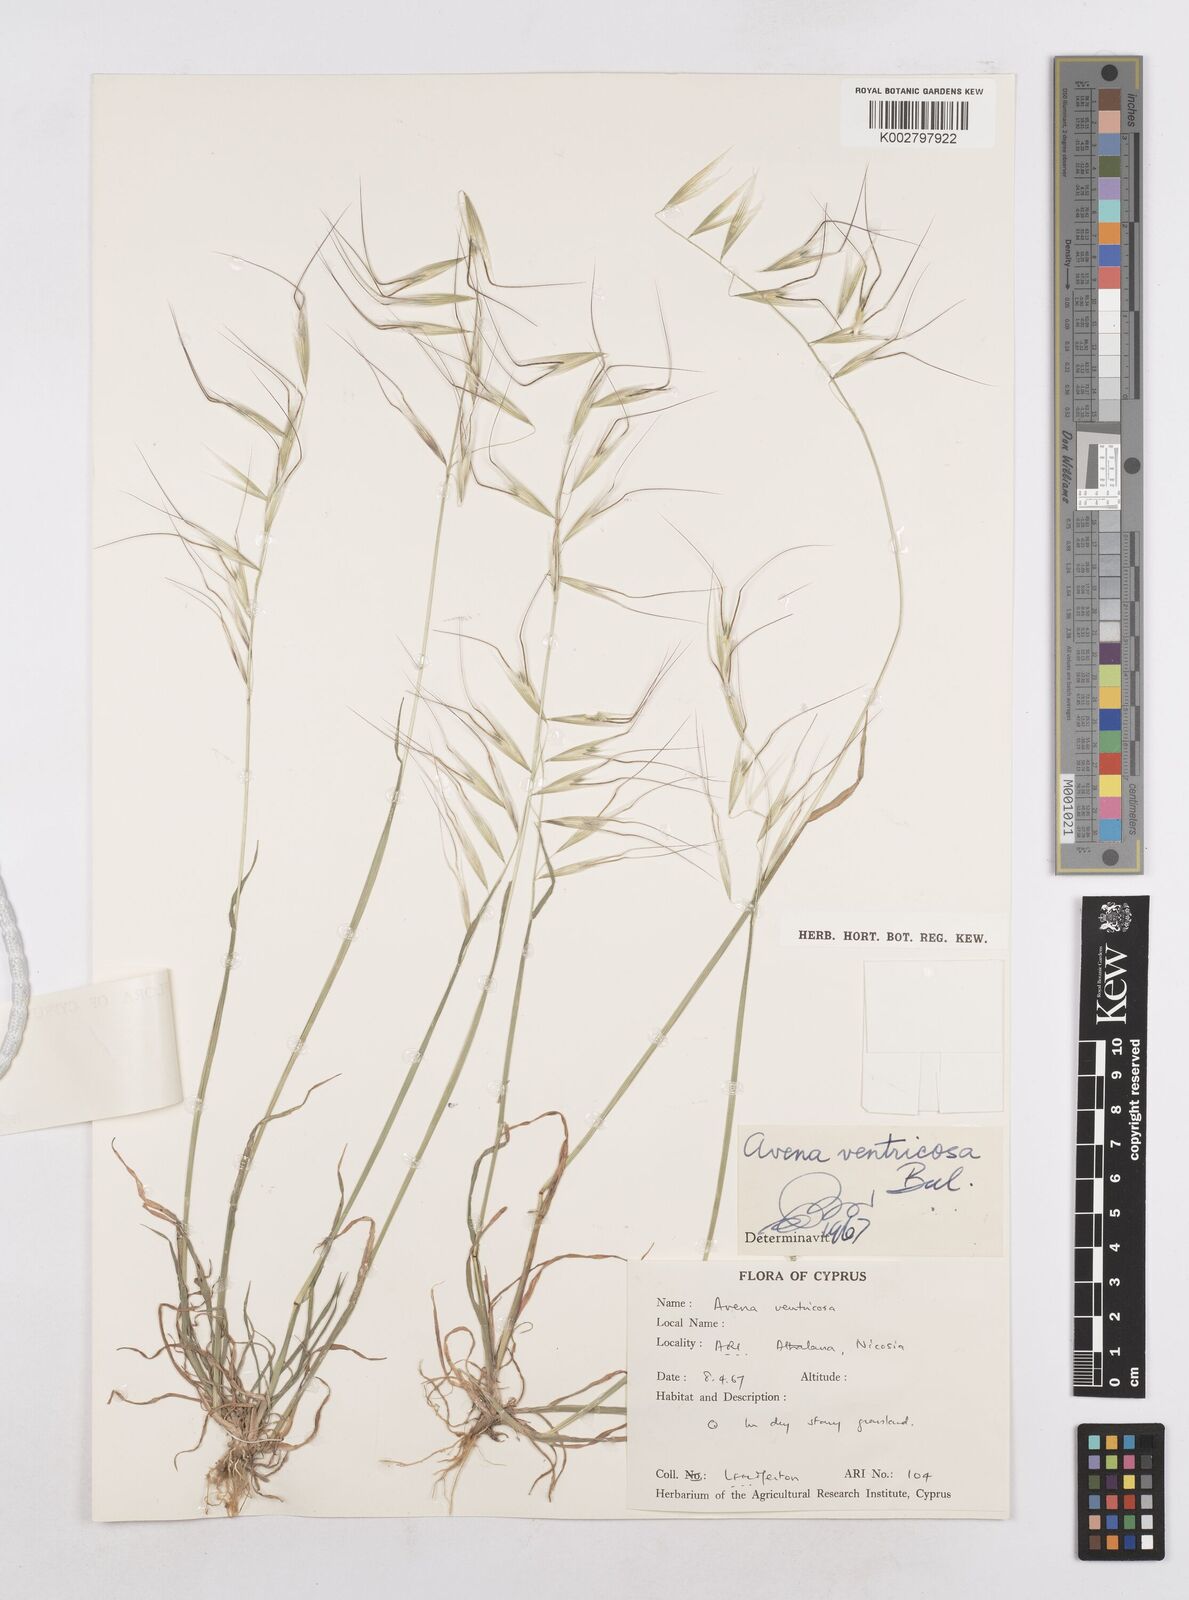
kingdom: Plantae
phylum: Tracheophyta
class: Liliopsida
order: Poales
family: Poaceae
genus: Avena
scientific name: Avena ventricosa
